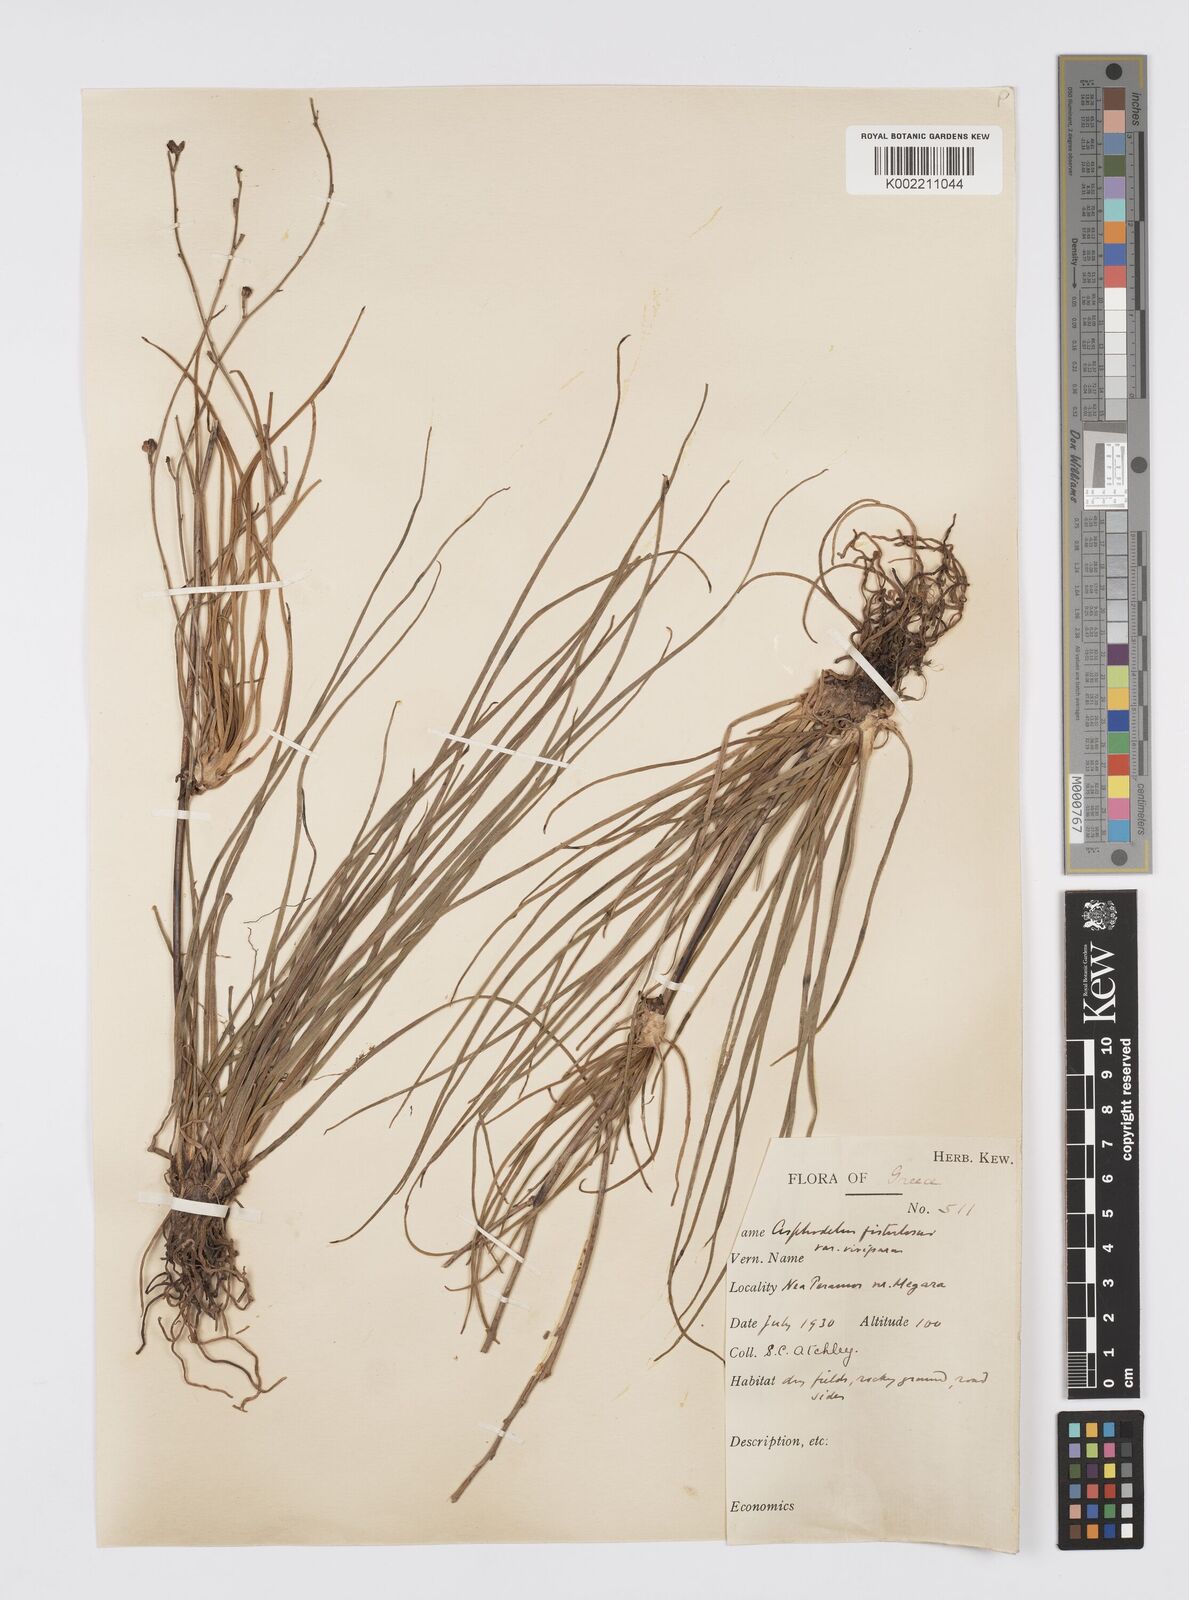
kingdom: Plantae
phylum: Tracheophyta
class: Liliopsida
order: Asparagales
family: Asphodelaceae
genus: Asphodelus
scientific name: Asphodelus fistulosus
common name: Onionweed
